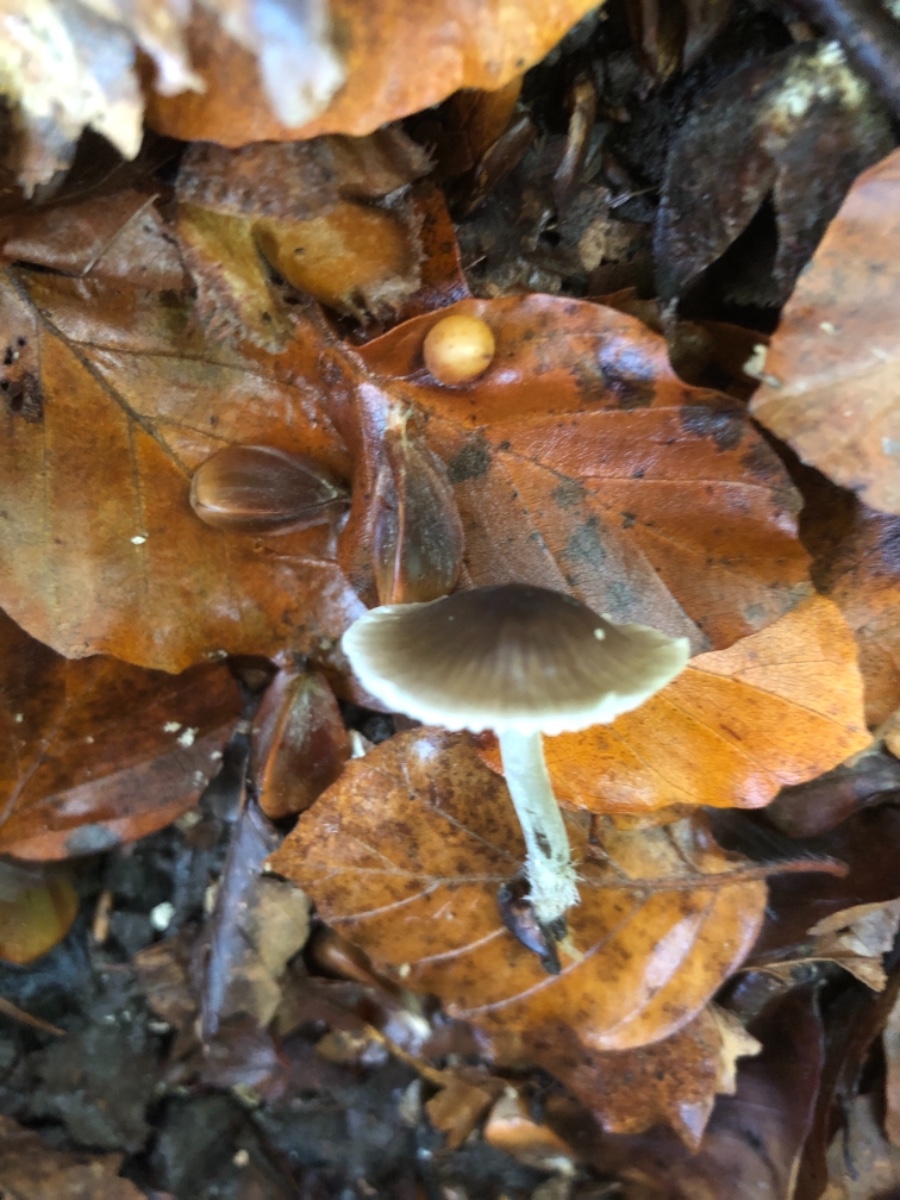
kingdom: Fungi
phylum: Basidiomycota
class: Agaricomycetes
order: Agaricales
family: Tricholomataceae
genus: Mycenella
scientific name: Mycenella trachyspora
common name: rødprikket dughat
